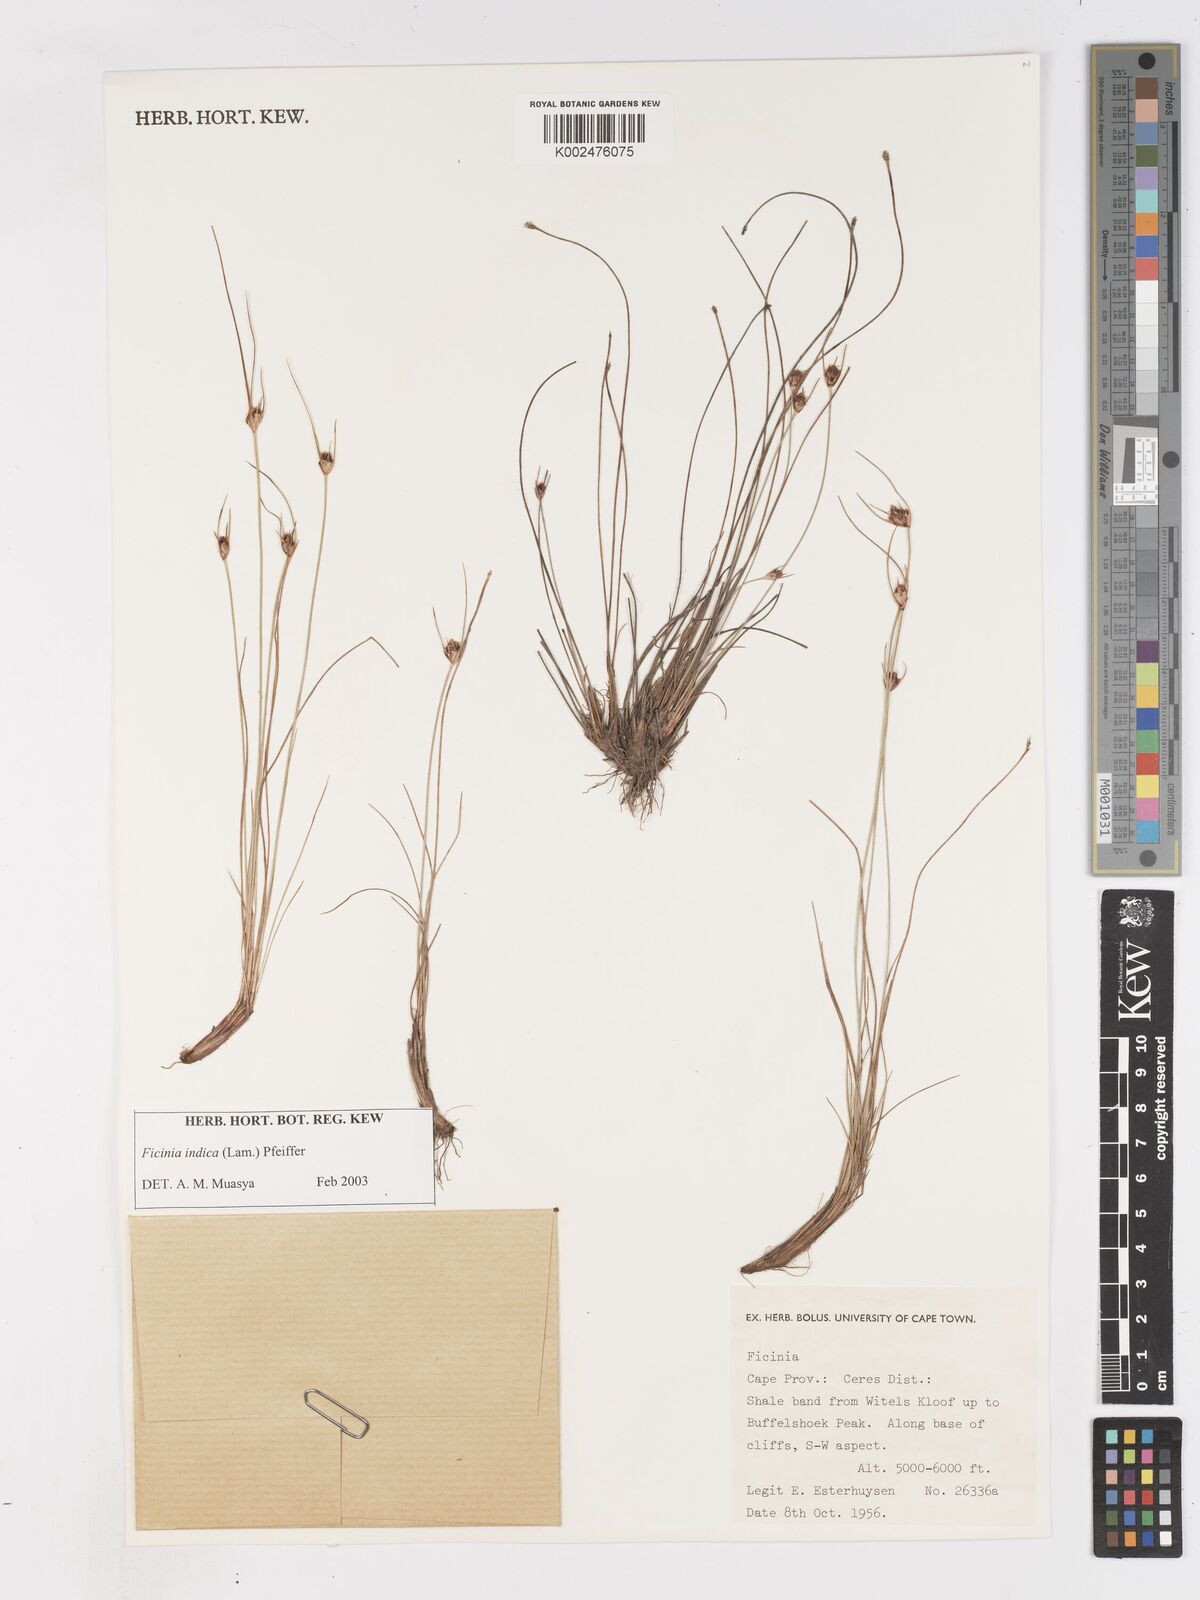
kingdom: Plantae
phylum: Tracheophyta
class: Liliopsida
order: Poales
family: Cyperaceae
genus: Ficinia
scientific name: Ficinia indica
